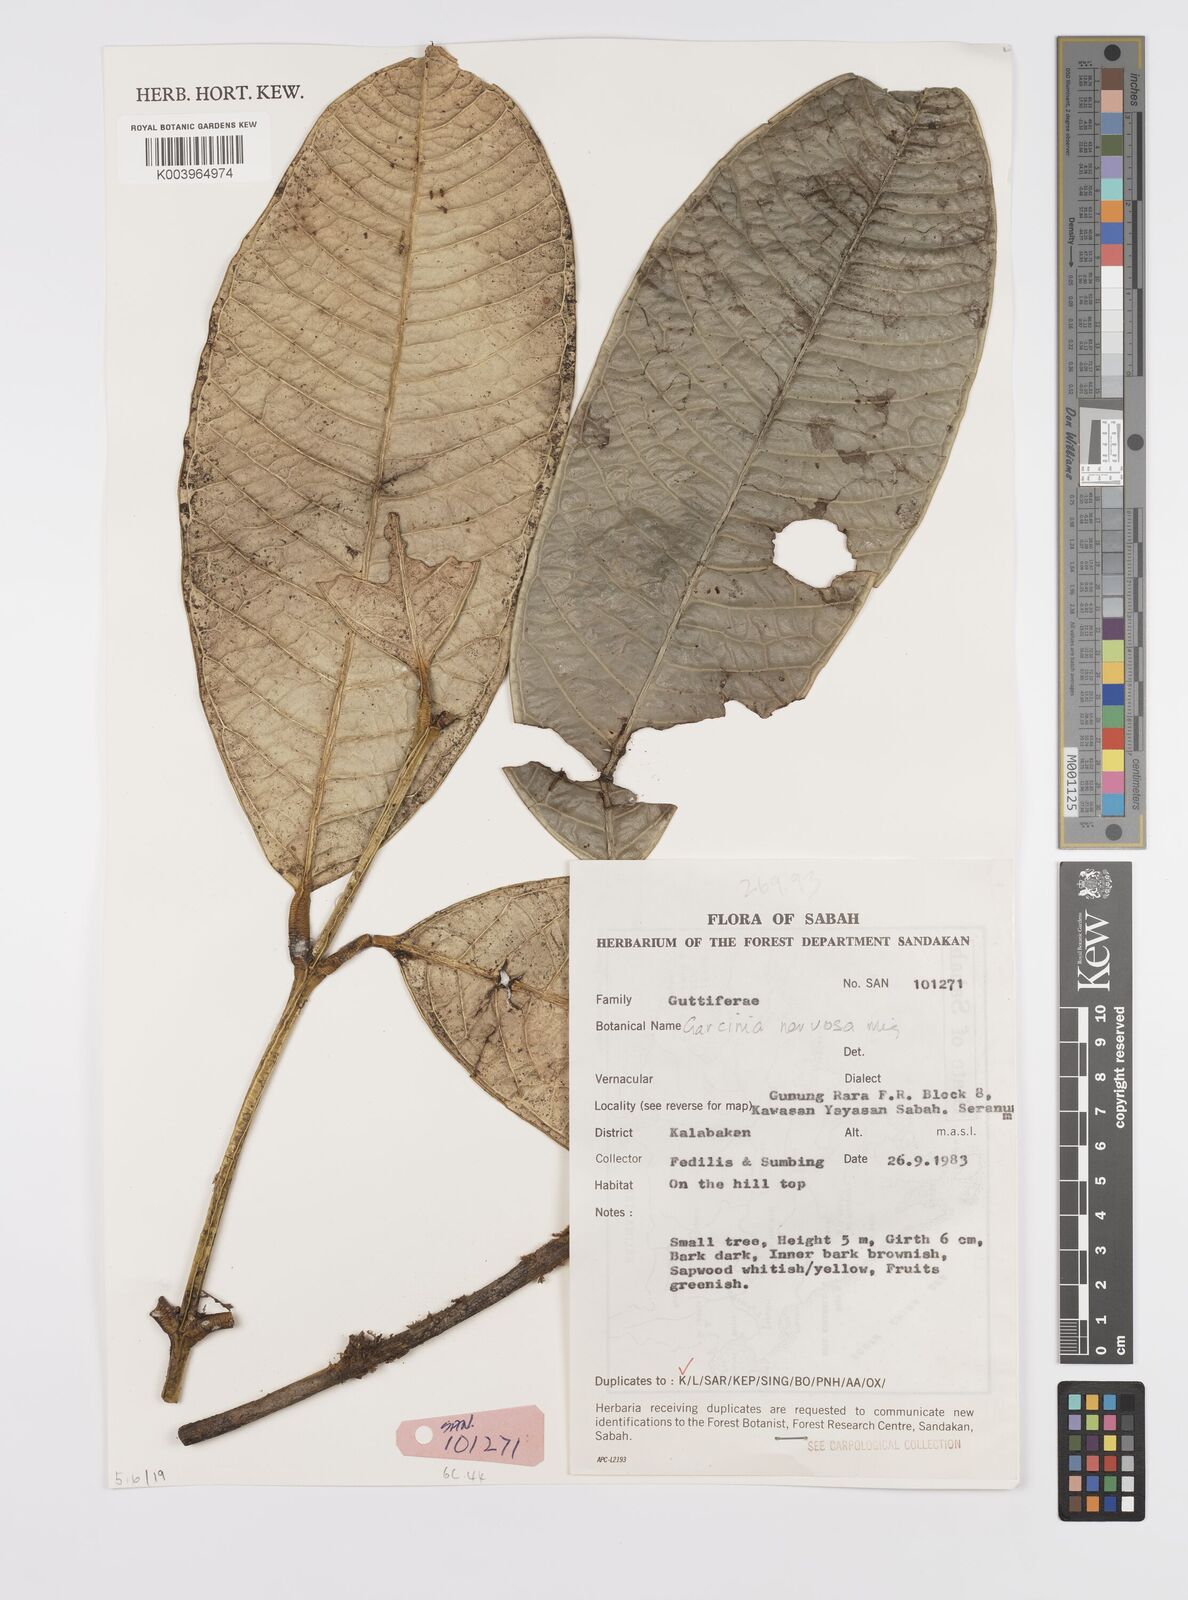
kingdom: Plantae
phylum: Tracheophyta
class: Magnoliopsida
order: Malpighiales
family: Clusiaceae
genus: Garcinia
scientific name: Garcinia nervosa
